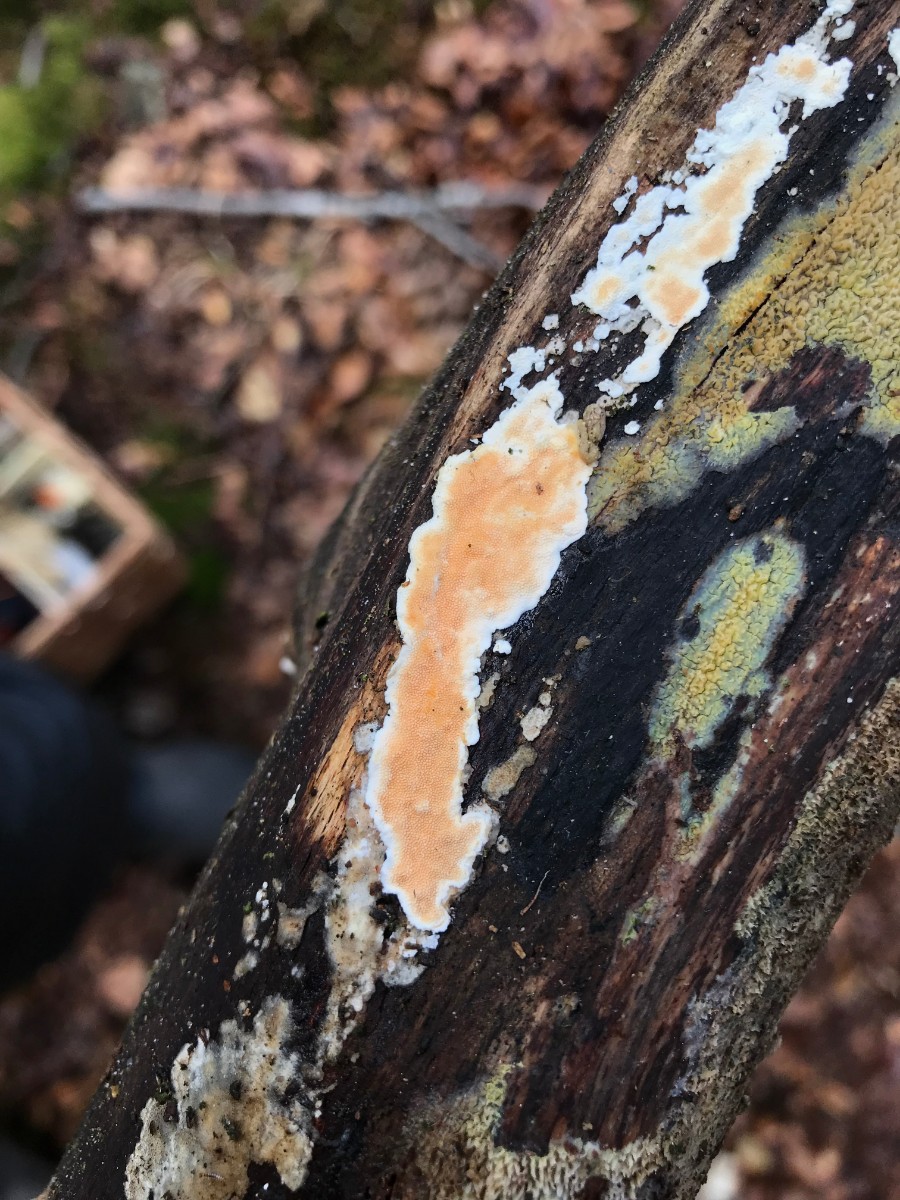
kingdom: Fungi
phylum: Basidiomycota
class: Agaricomycetes
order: Polyporales
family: Steccherinaceae
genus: Steccherinum
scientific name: Steccherinum ochraceum
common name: almindelig skønpig
